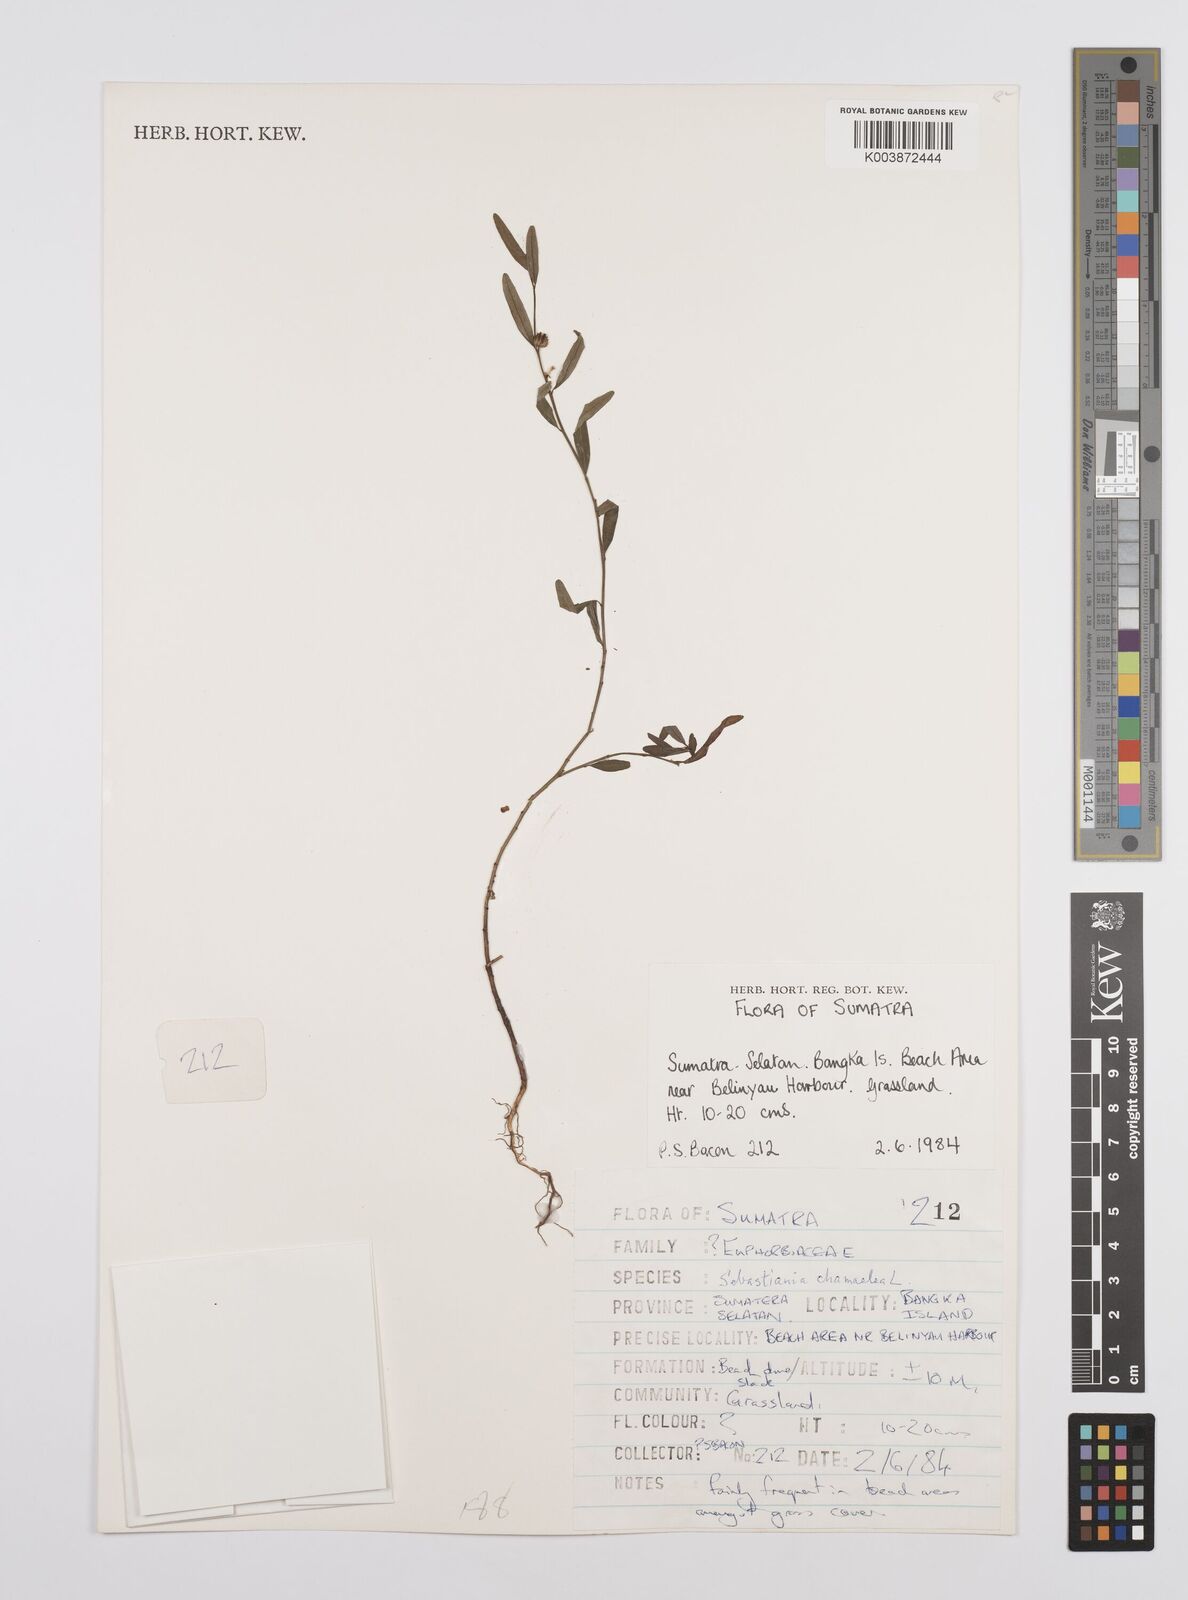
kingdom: Plantae
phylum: Tracheophyta
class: Magnoliopsida
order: Malpighiales
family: Euphorbiaceae
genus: Microstachys
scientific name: Microstachys chamaelea
